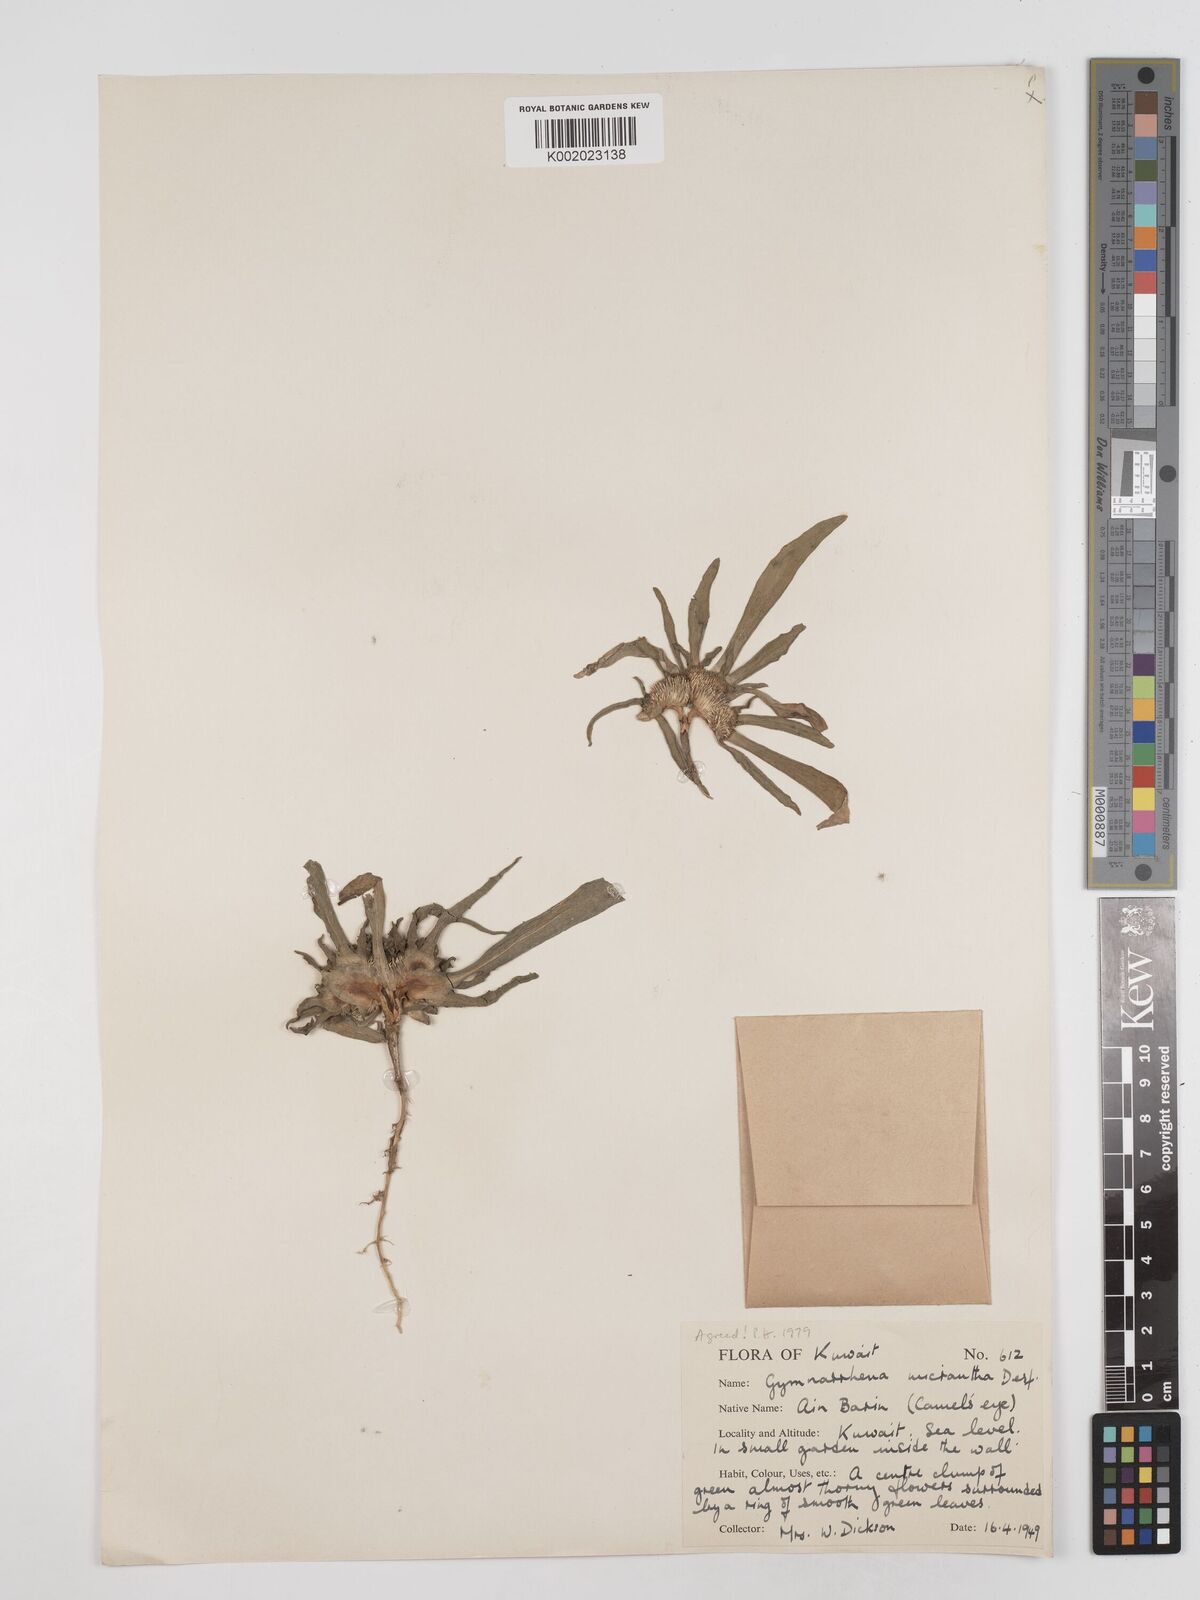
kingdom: Plantae
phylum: Tracheophyta
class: Magnoliopsida
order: Asterales
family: Asteraceae
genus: Gymnarrhena
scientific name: Gymnarrhena micrantha
